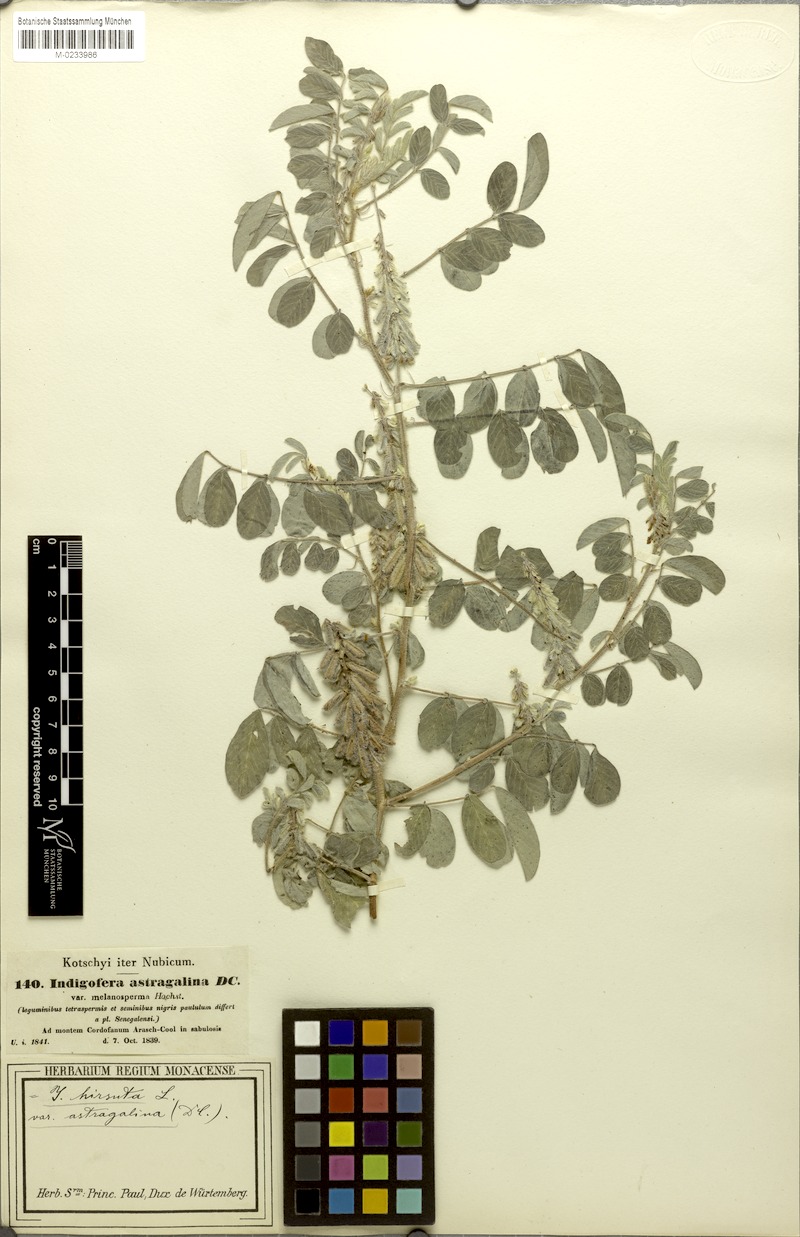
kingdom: Plantae
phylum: Tracheophyta
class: Magnoliopsida
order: Fabales
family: Fabaceae
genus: Indigofera
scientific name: Indigofera astragalina
